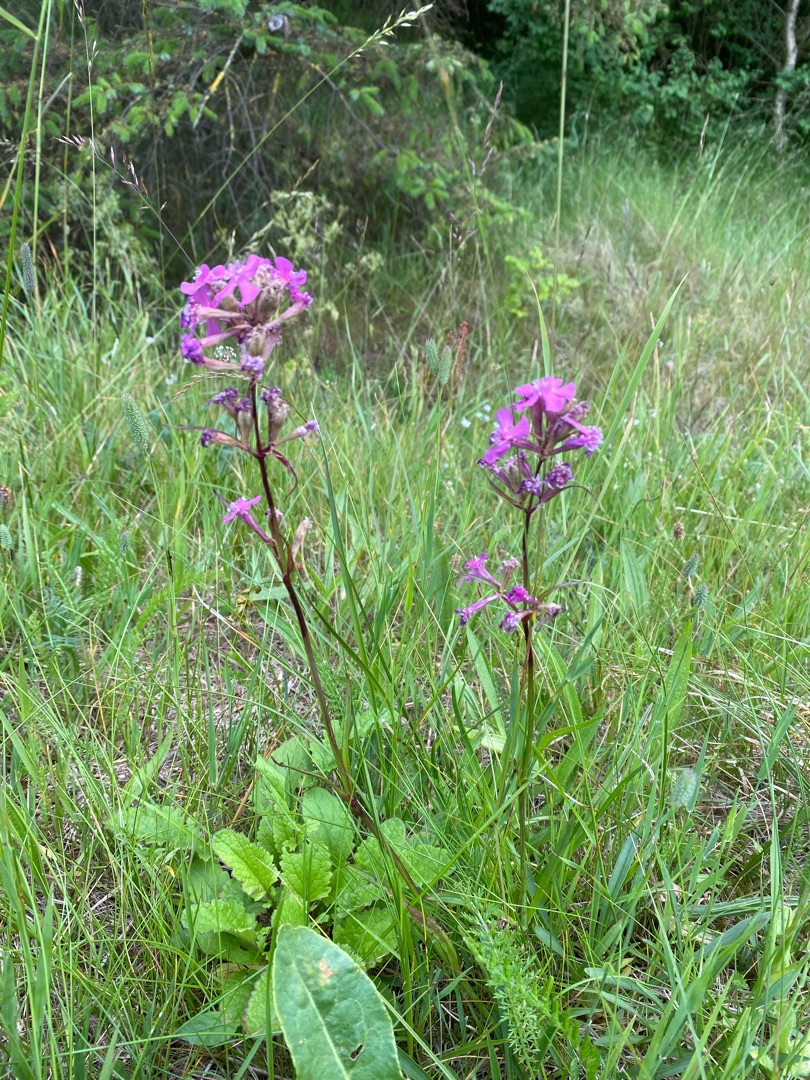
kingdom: Plantae
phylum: Tracheophyta
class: Magnoliopsida
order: Caryophyllales
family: Caryophyllaceae
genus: Viscaria
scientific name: Viscaria vulgaris
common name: Tjærenellike
